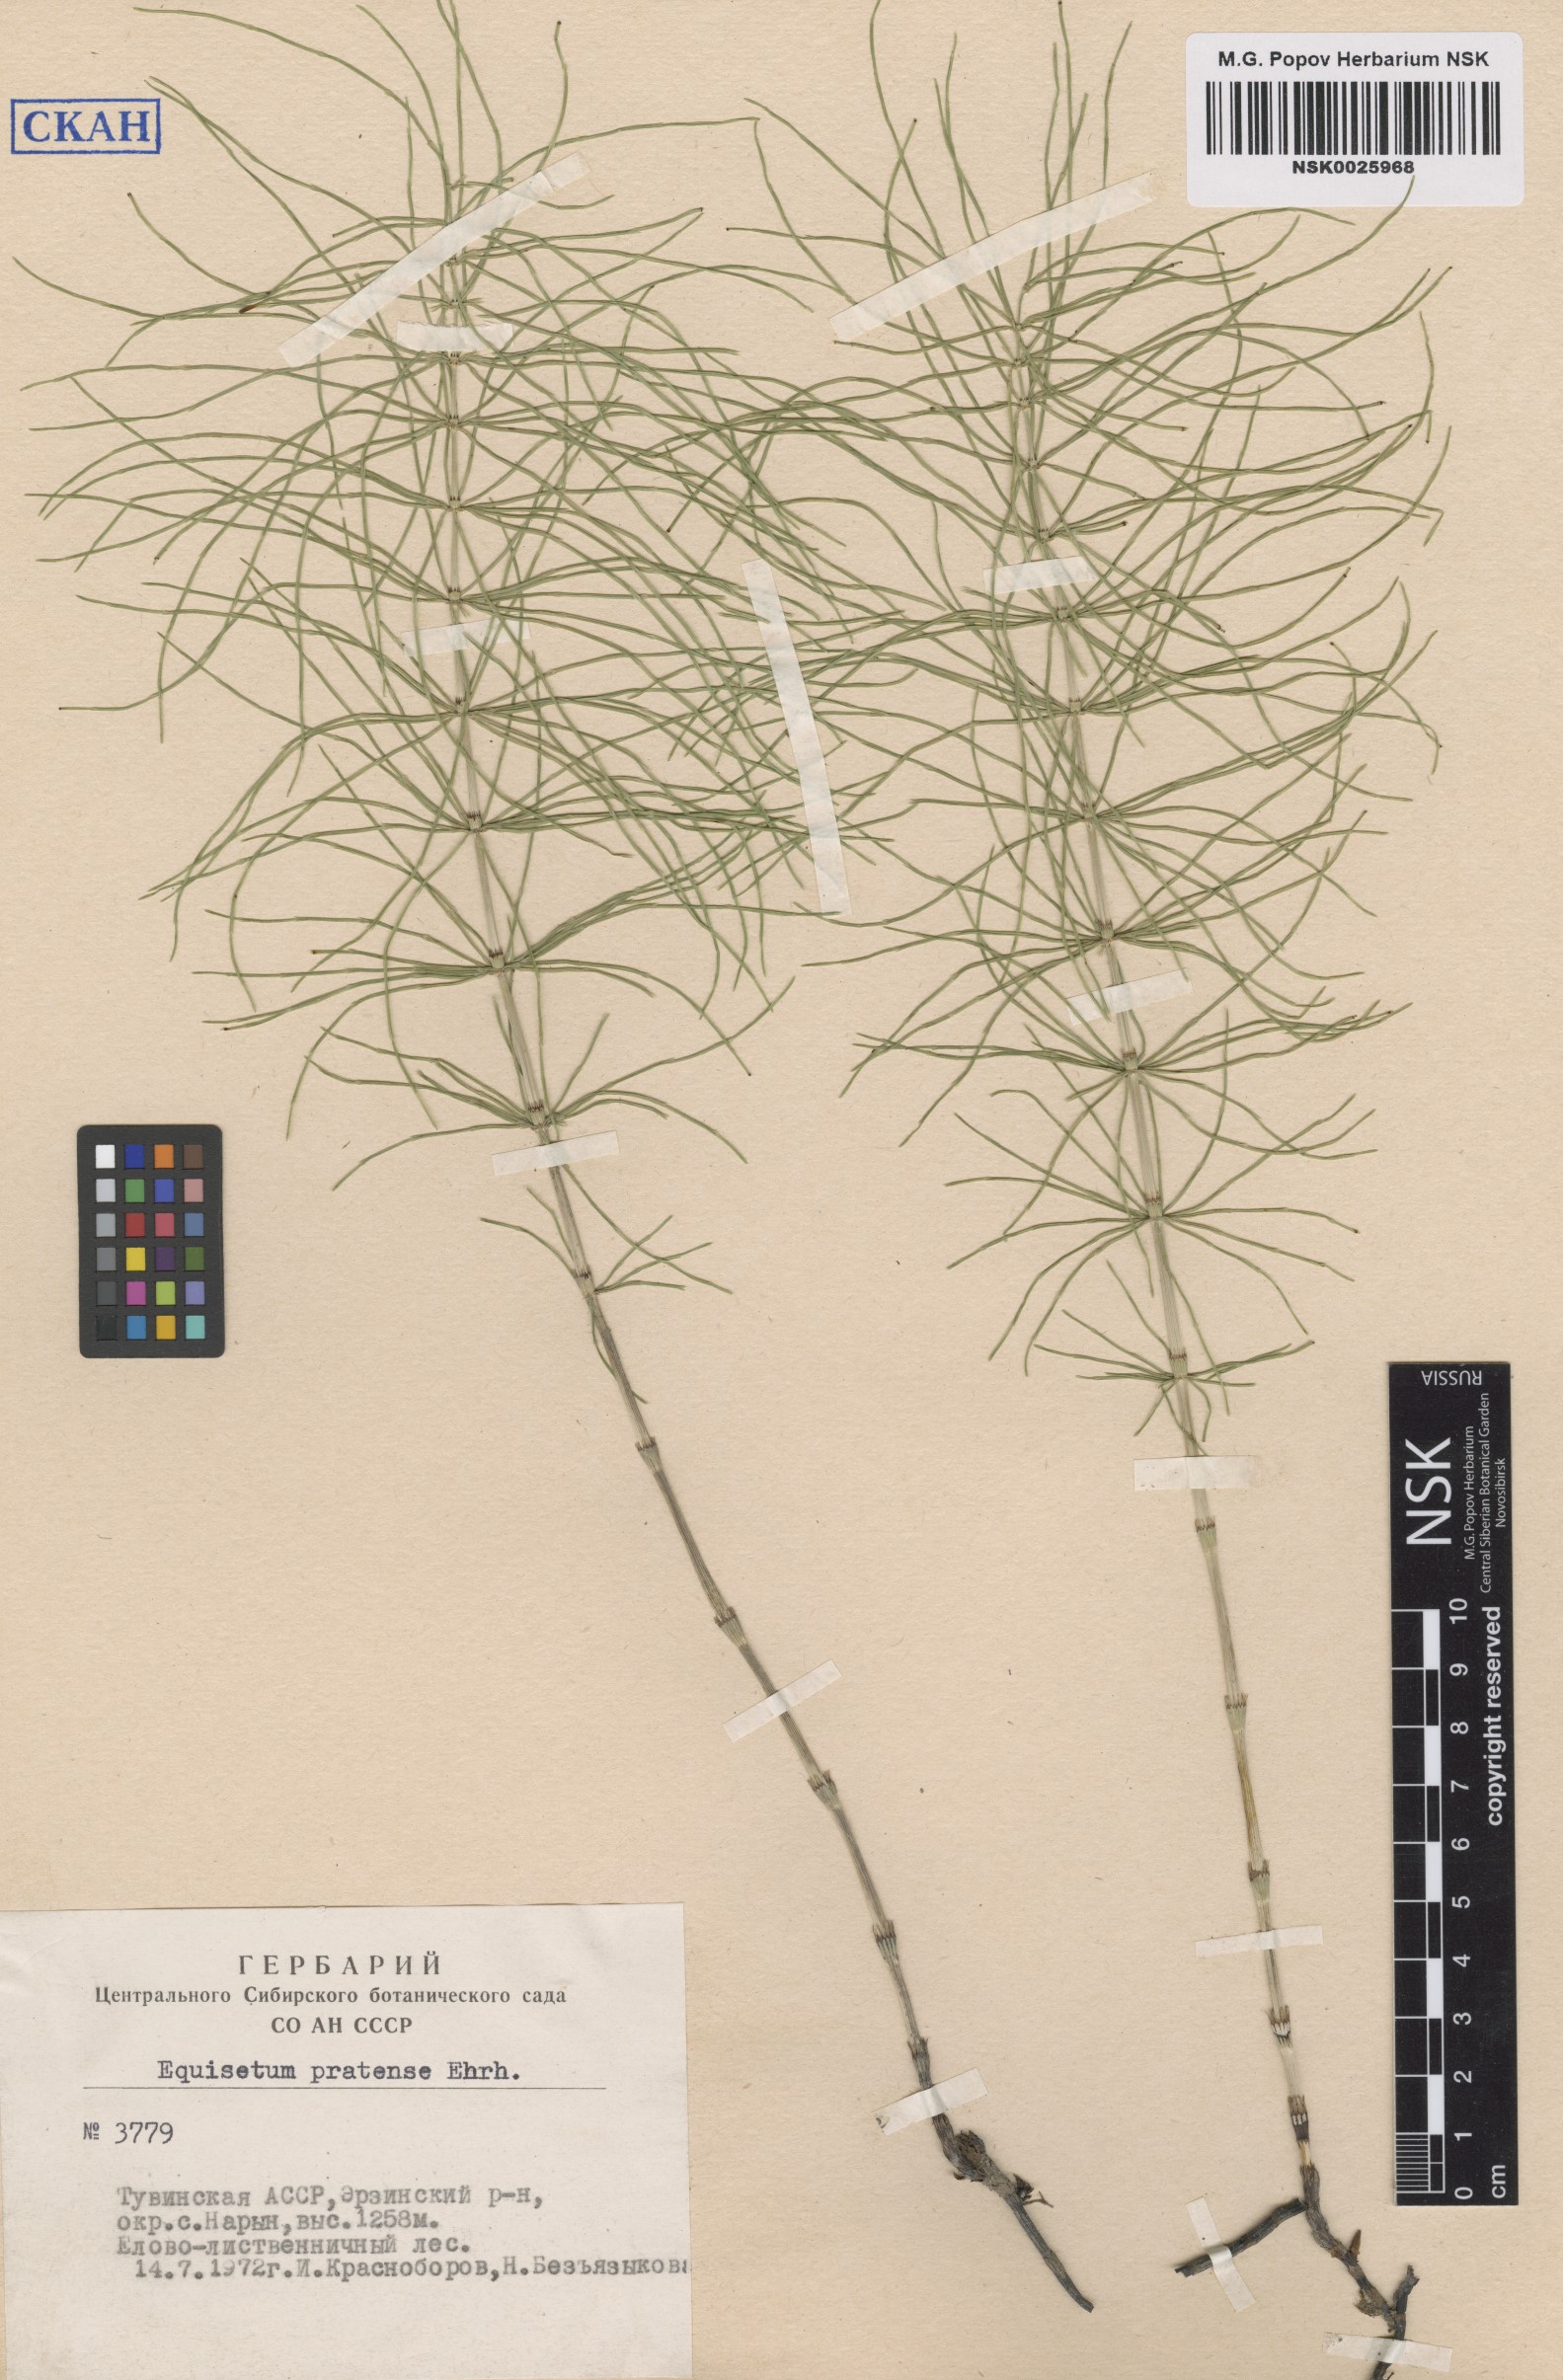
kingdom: Plantae
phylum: Tracheophyta
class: Polypodiopsida
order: Equisetales
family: Equisetaceae
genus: Equisetum
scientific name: Equisetum pratense
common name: Meadow horsetail
